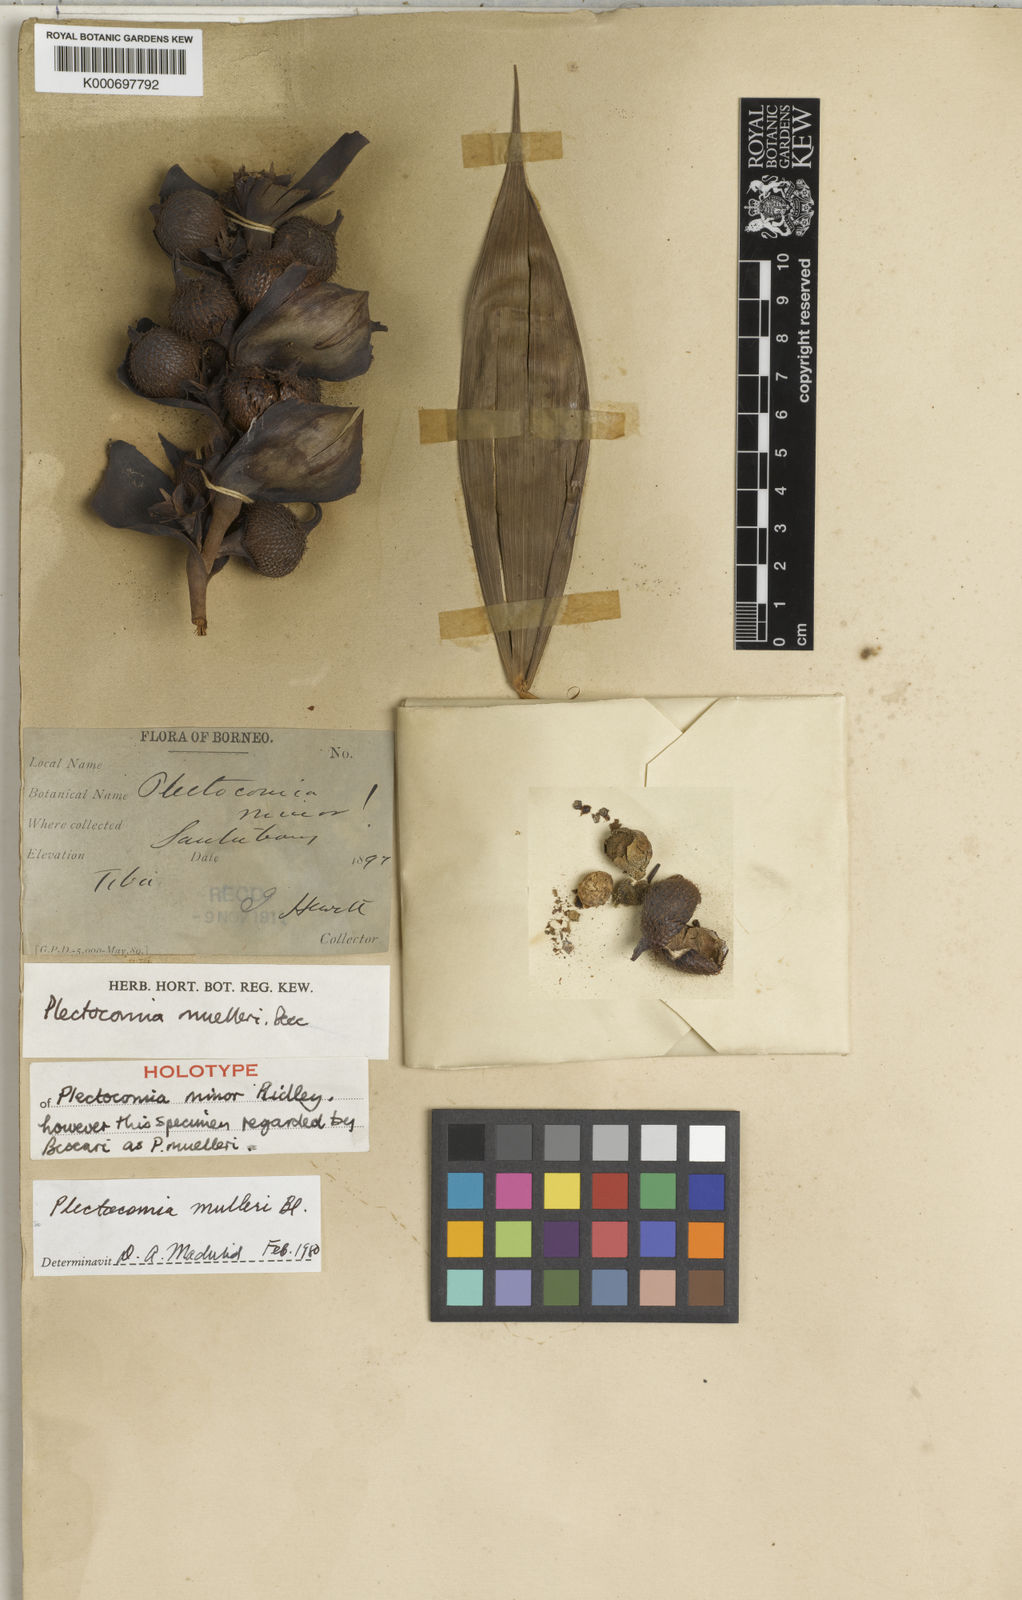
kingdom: Plantae
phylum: Tracheophyta
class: Liliopsida
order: Arecales
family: Arecaceae
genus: Plectocomia
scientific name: Plectocomia mulleri
